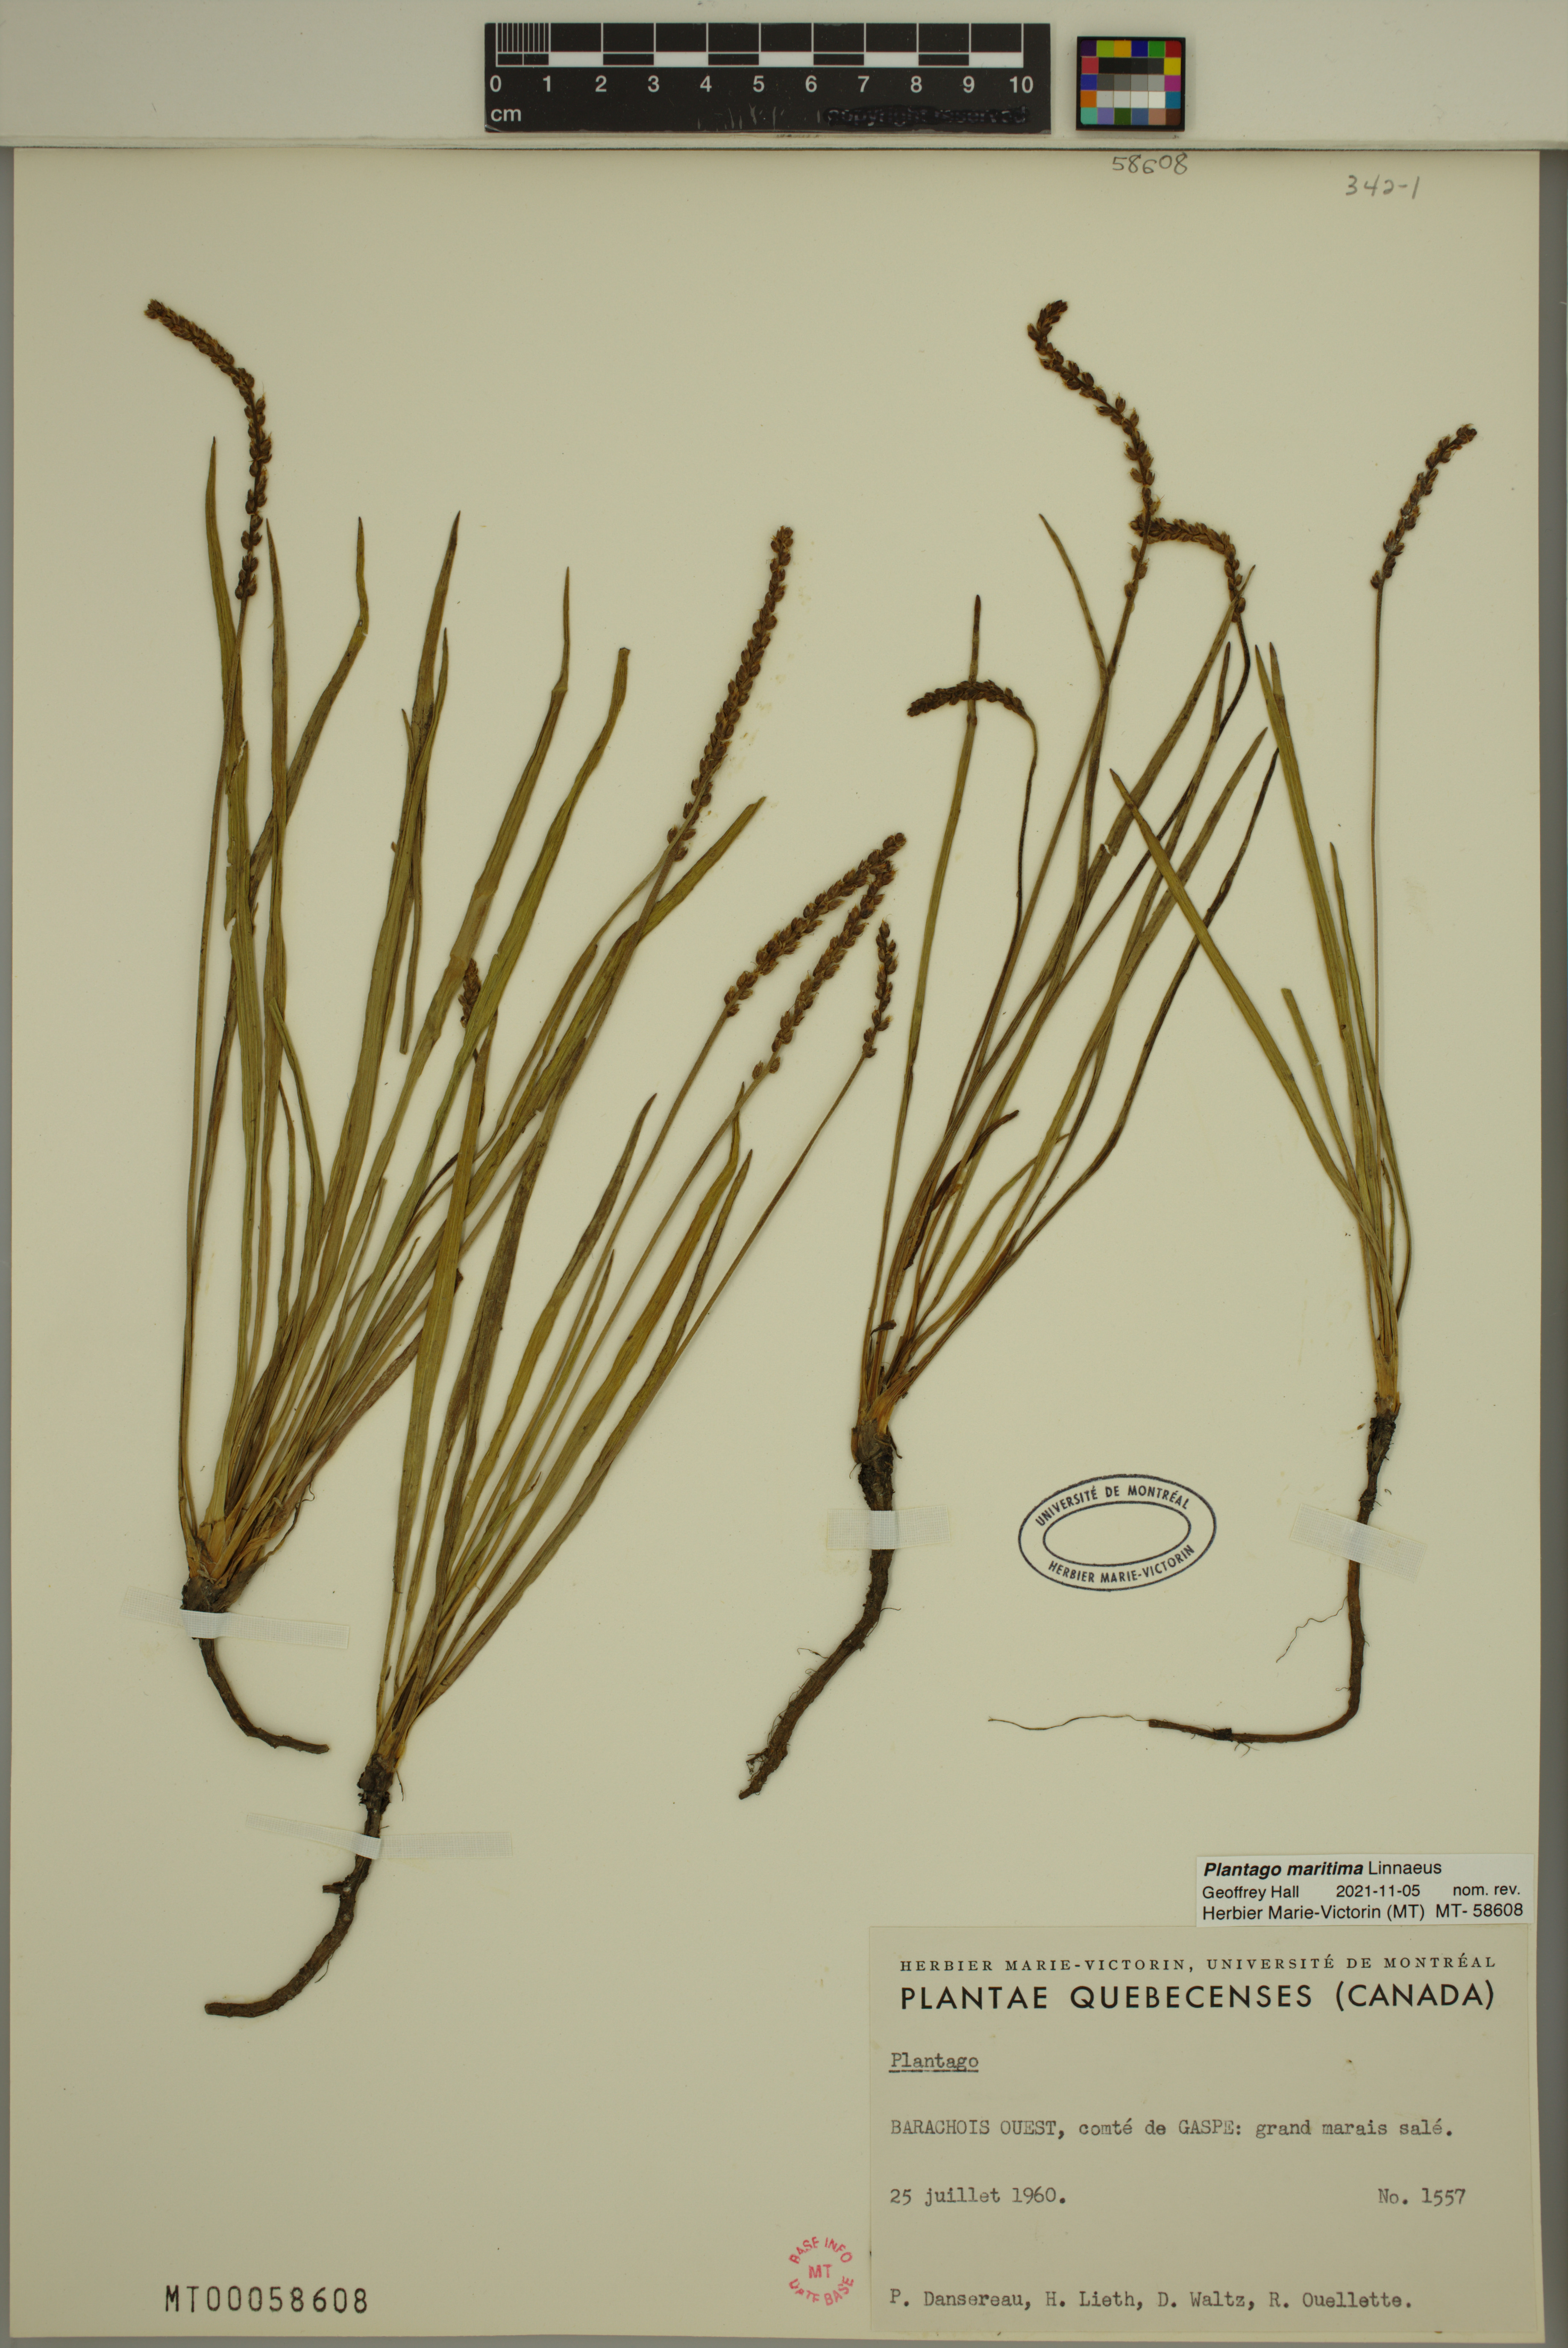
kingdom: Plantae
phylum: Tracheophyta
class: Magnoliopsida
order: Lamiales
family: Plantaginaceae
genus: Plantago
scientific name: Plantago maritima
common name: Sea plantain
